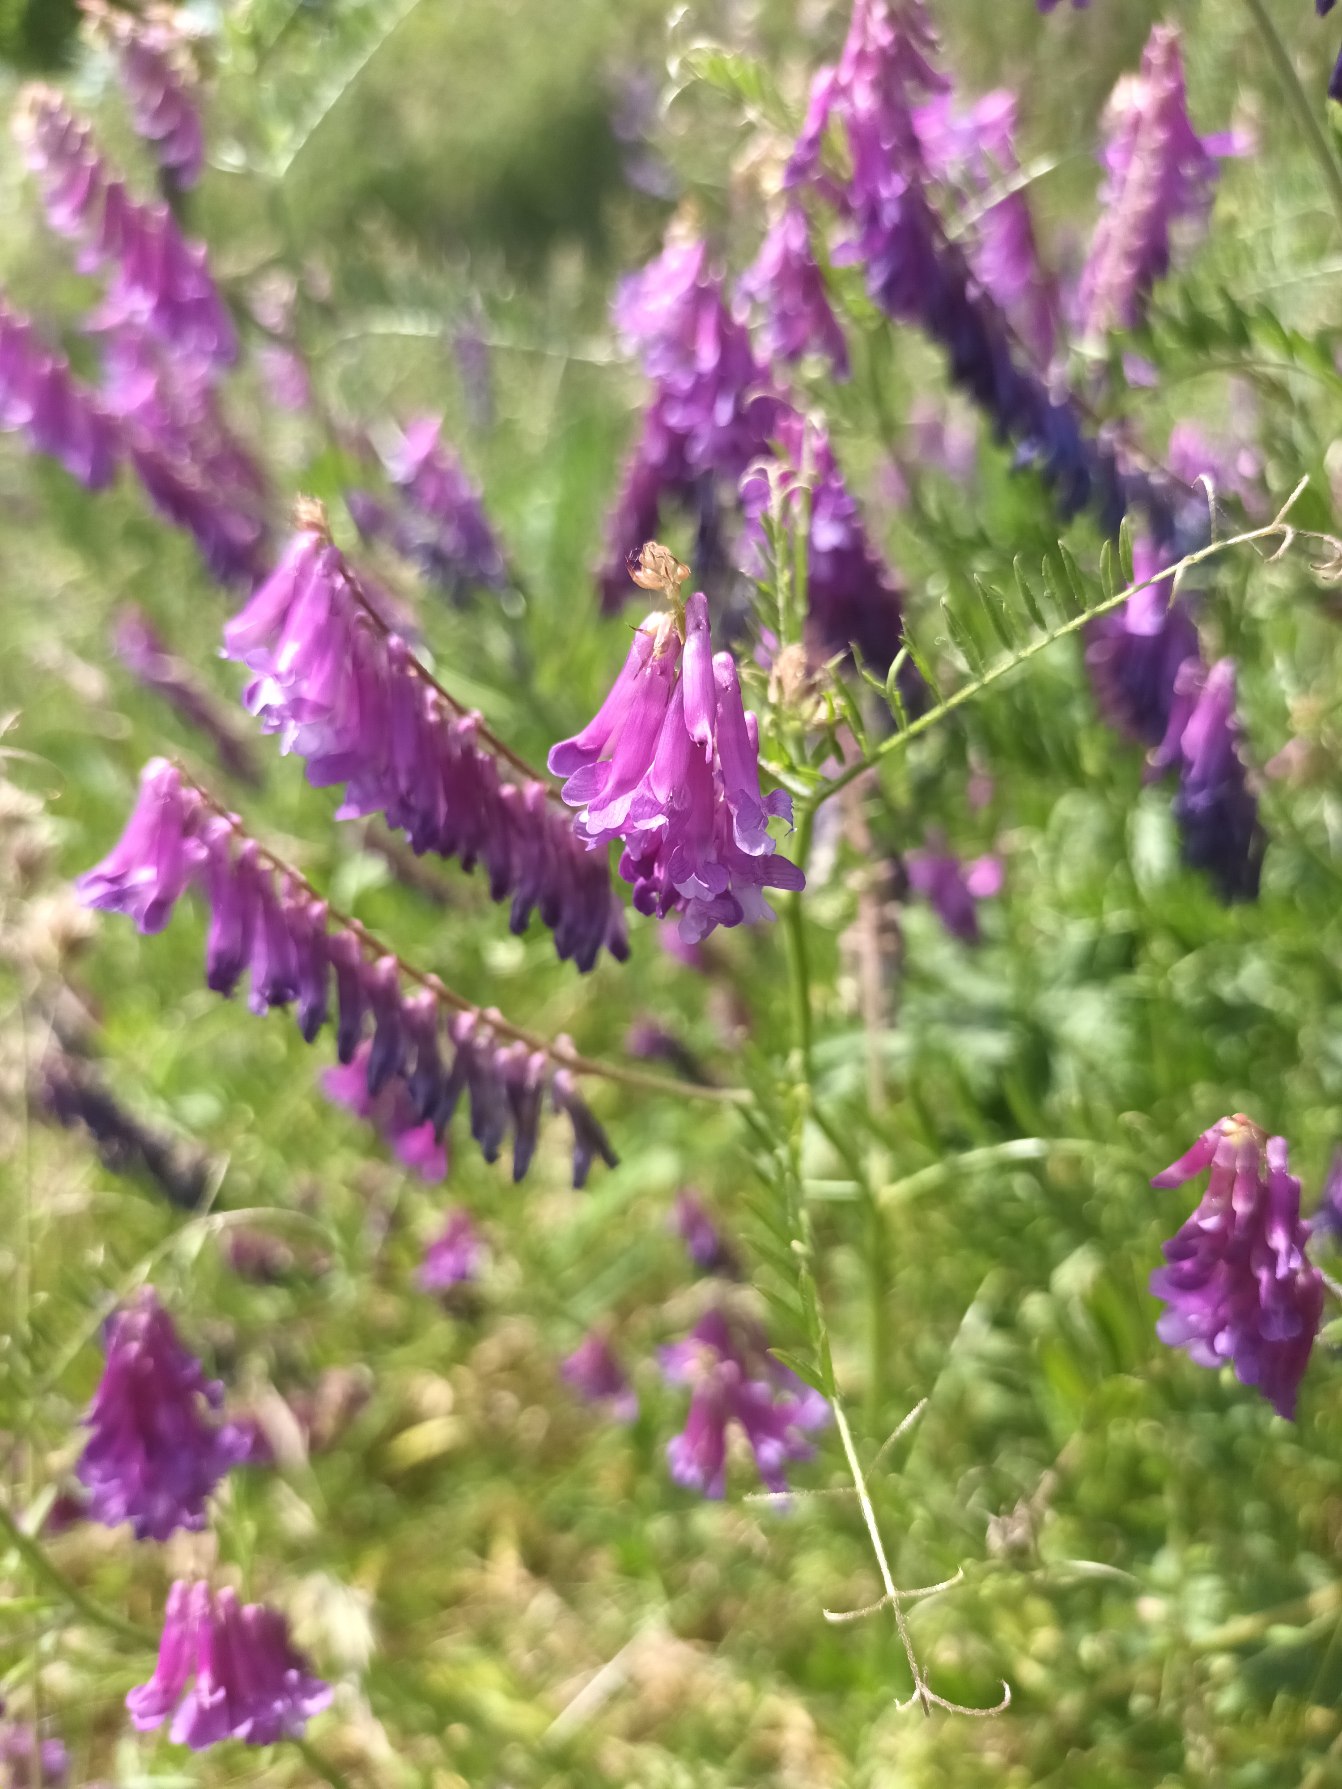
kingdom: Plantae
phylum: Tracheophyta
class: Magnoliopsida
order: Fabales
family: Fabaceae
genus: Vicia
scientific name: Vicia villosa
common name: Glat vikke
